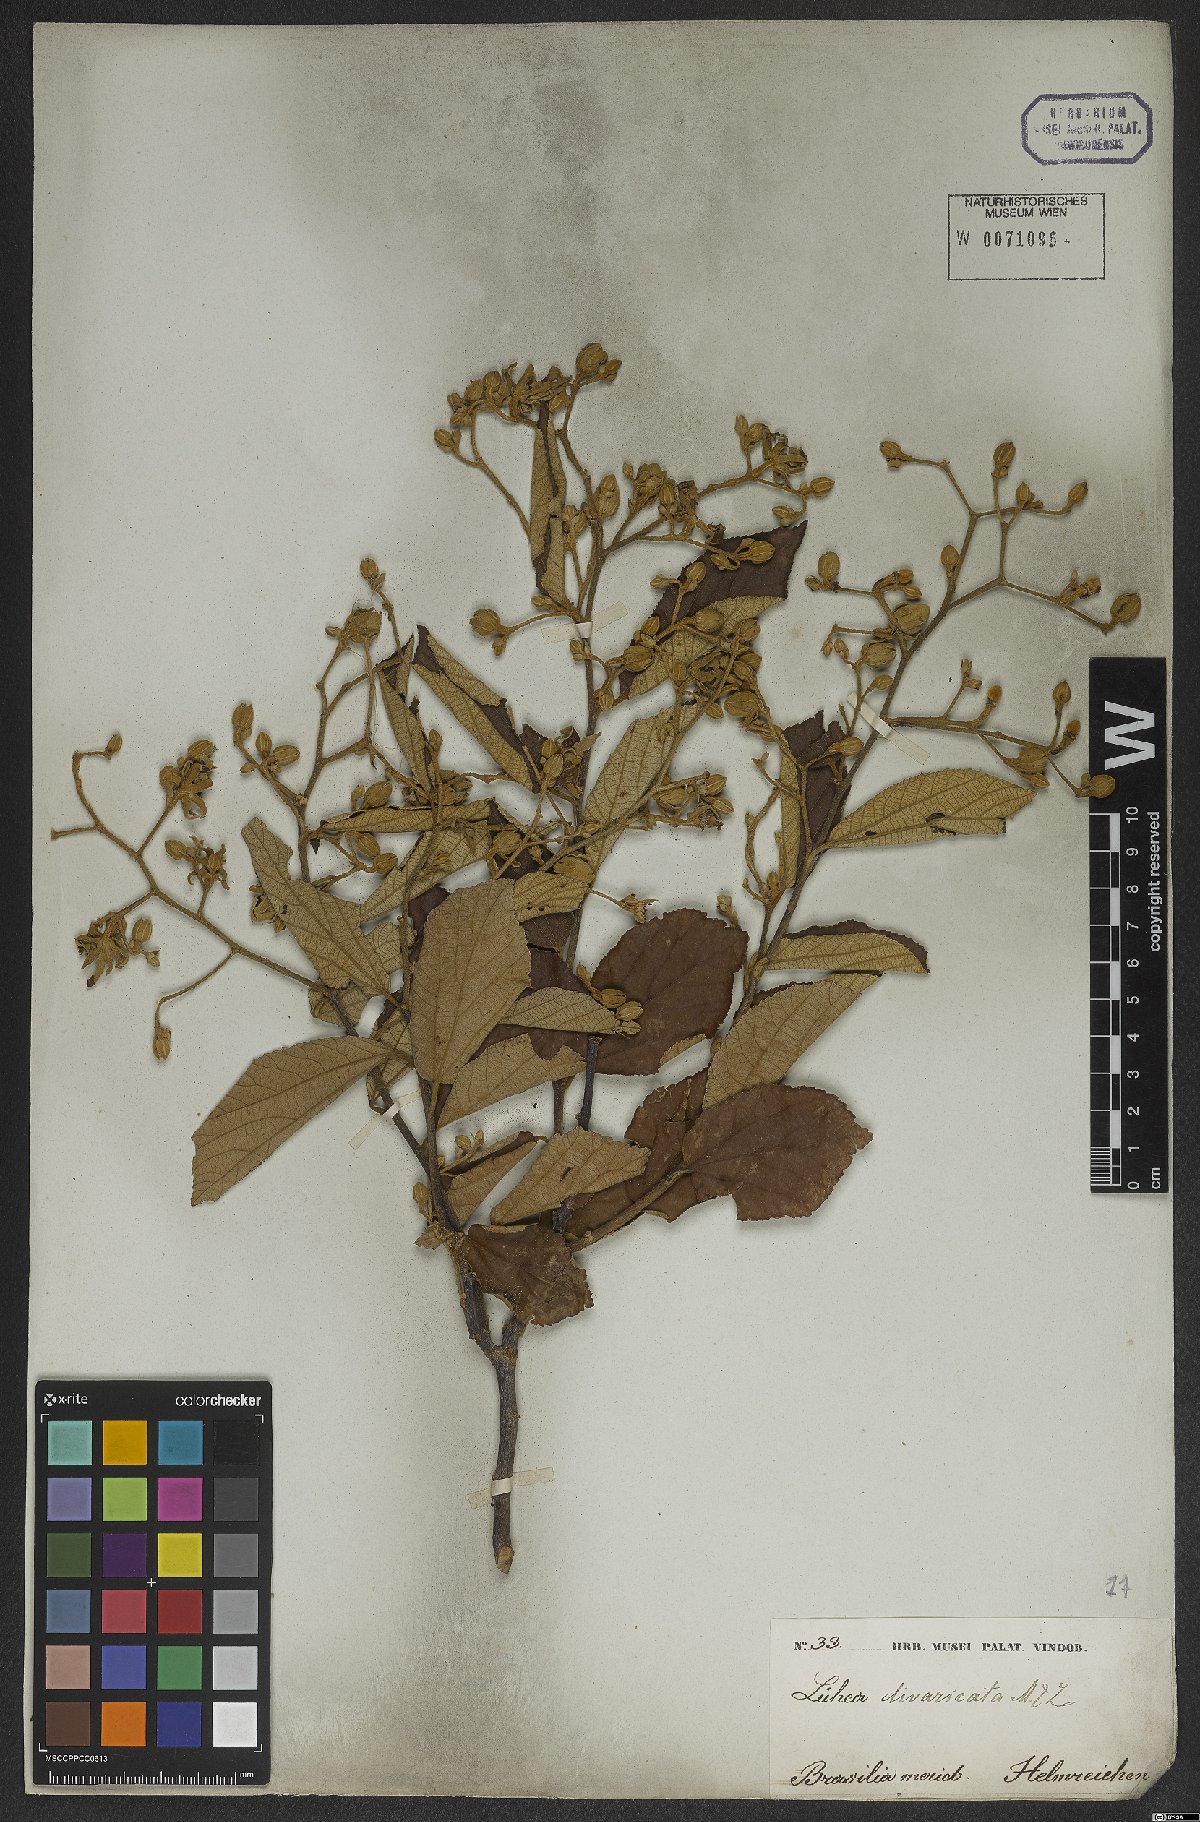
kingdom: Plantae
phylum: Tracheophyta
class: Magnoliopsida
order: Malvales
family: Malvaceae
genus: Luehea
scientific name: Luehea divaricata
